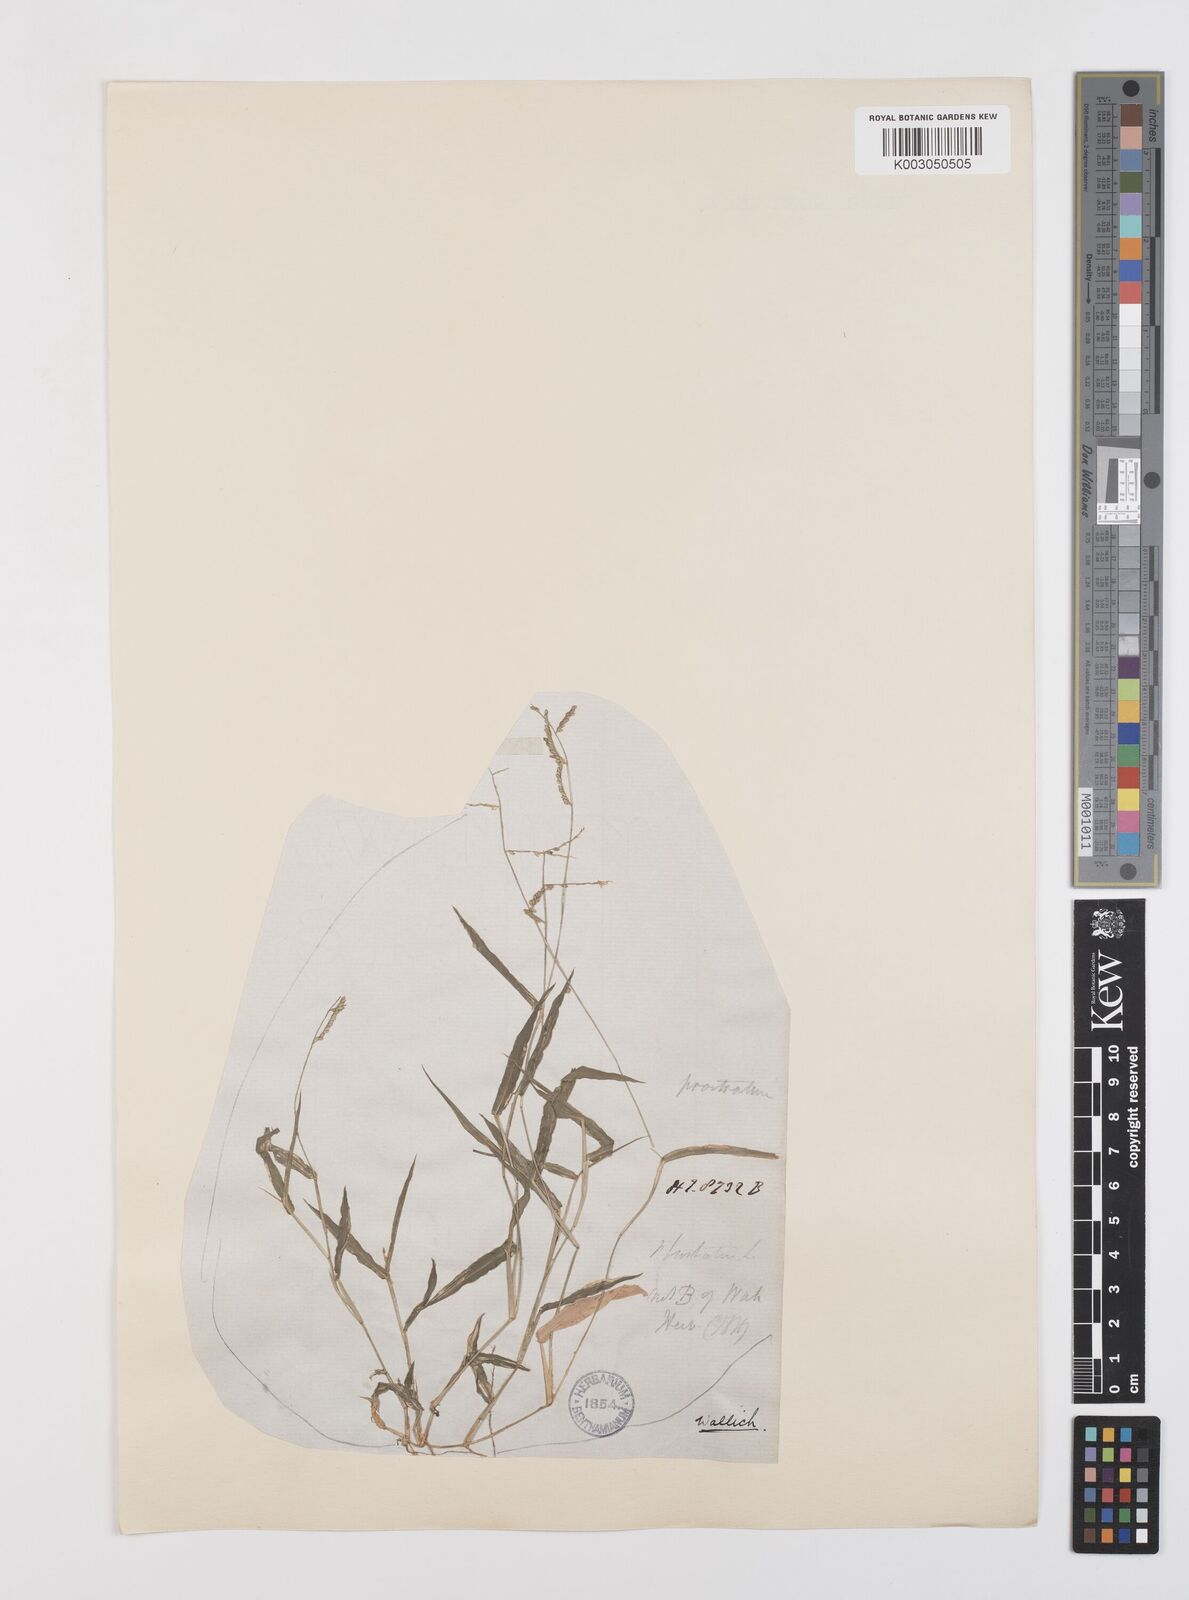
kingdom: Plantae
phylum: Tracheophyta
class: Liliopsida
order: Poales
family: Poaceae
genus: Urochloa
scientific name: Urochloa reptans
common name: Sprawling signalgrass
